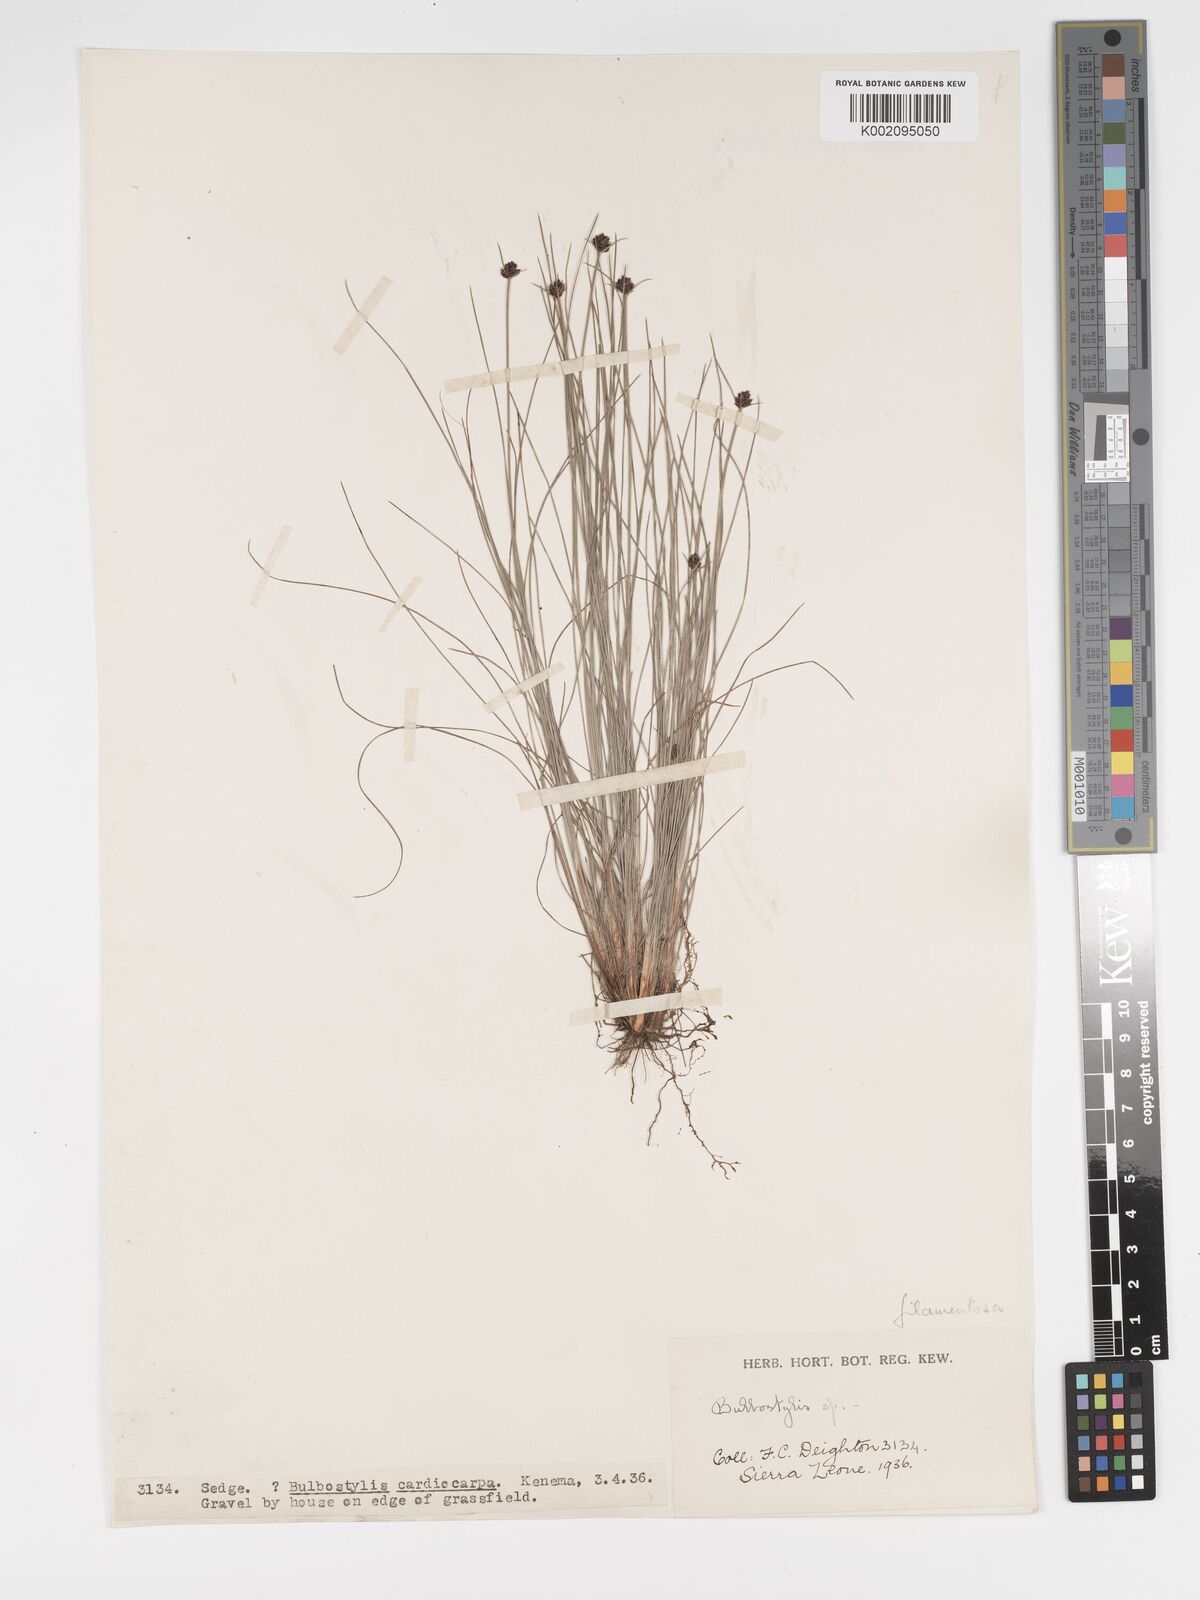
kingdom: Plantae
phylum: Tracheophyta
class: Liliopsida
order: Poales
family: Cyperaceae
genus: Bulbostylis
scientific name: Bulbostylis scabricaulis
